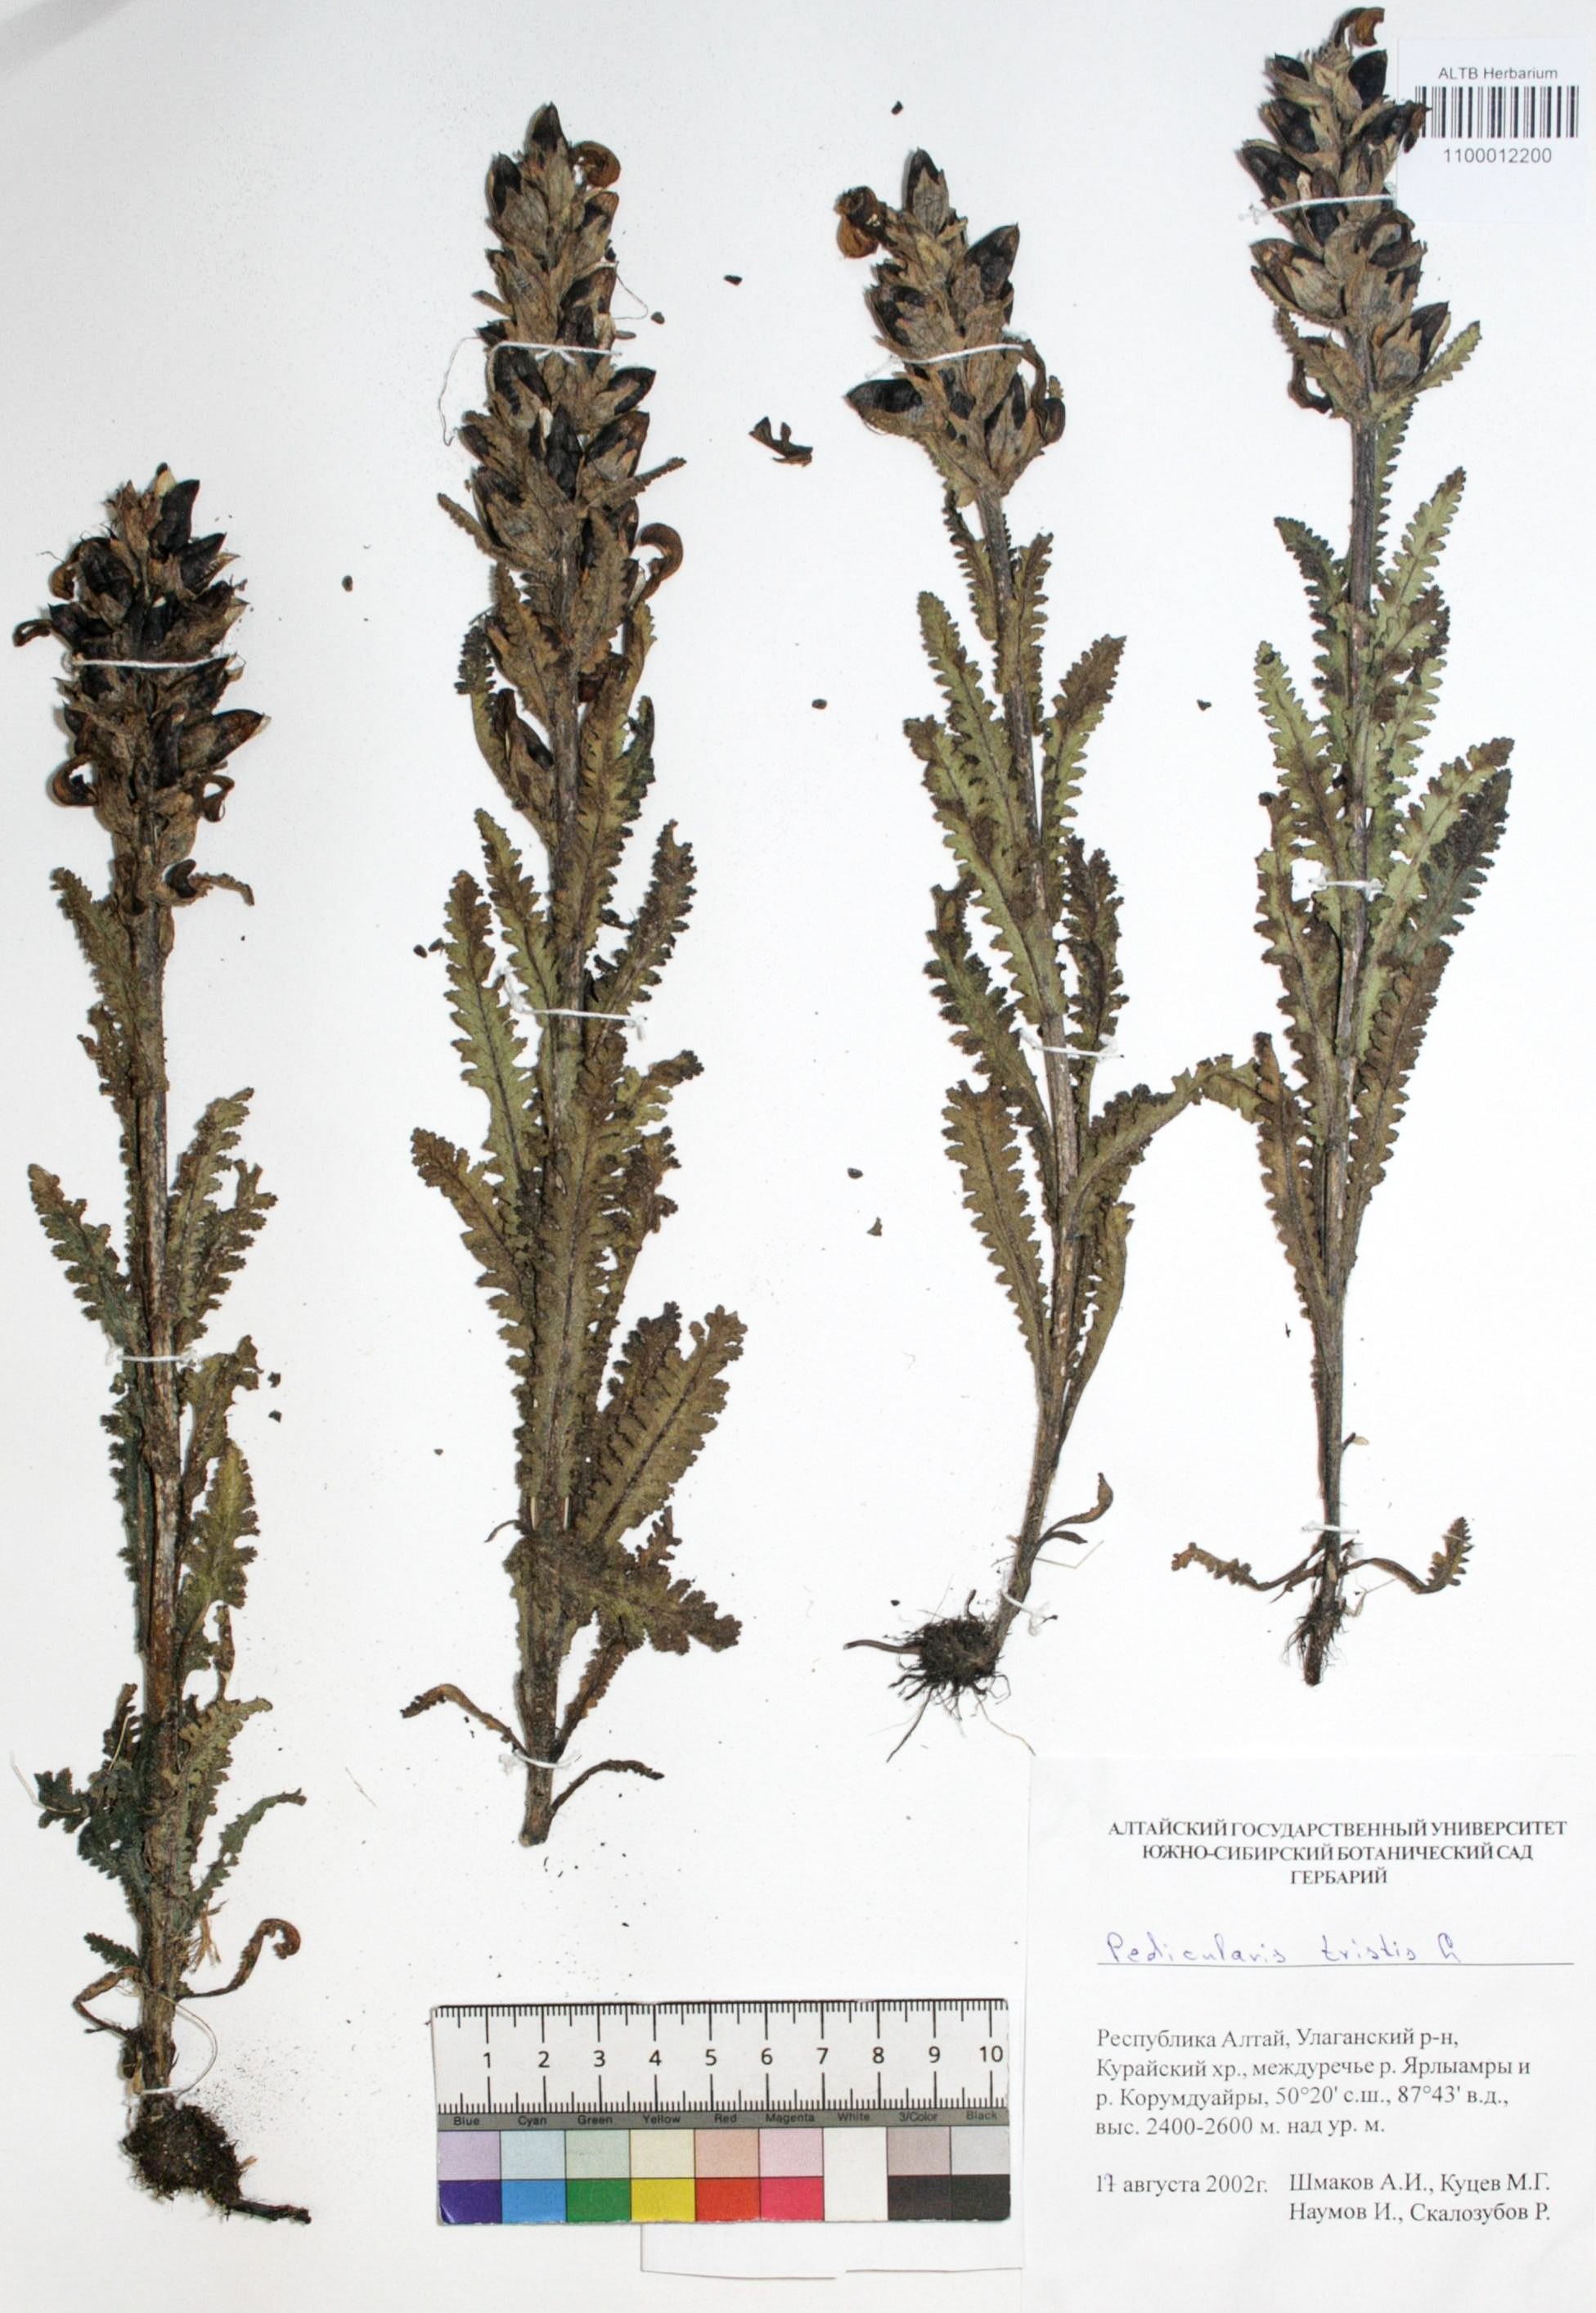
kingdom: Plantae
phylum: Tracheophyta
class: Magnoliopsida
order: Lamiales
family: Orobanchaceae
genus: Pedicularis
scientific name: Pedicularis tristis
